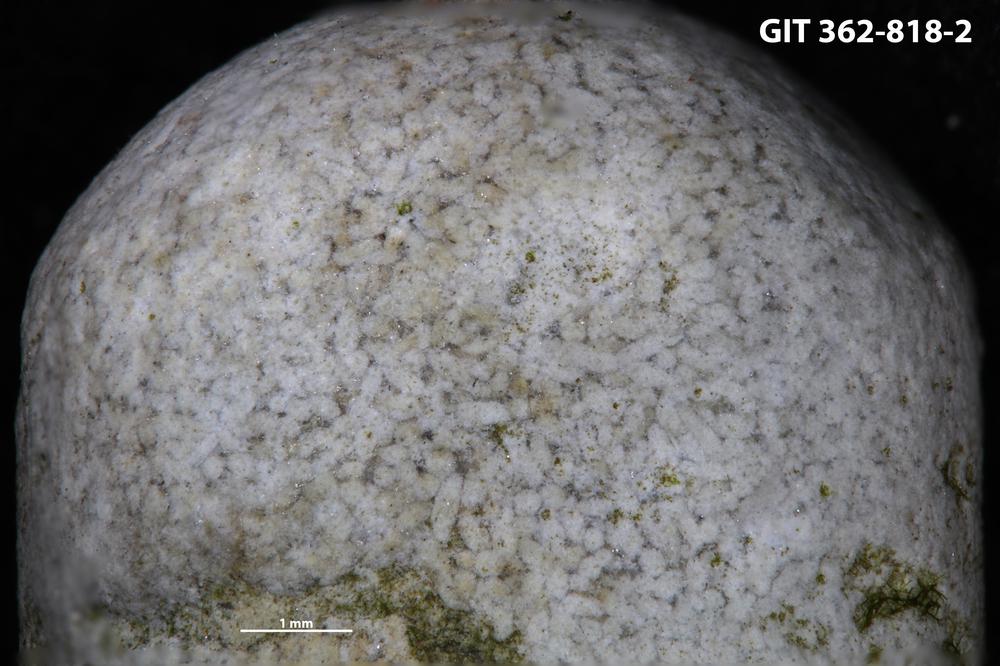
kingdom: Animalia
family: Coprulidae
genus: Coprulus
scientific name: Coprulus
